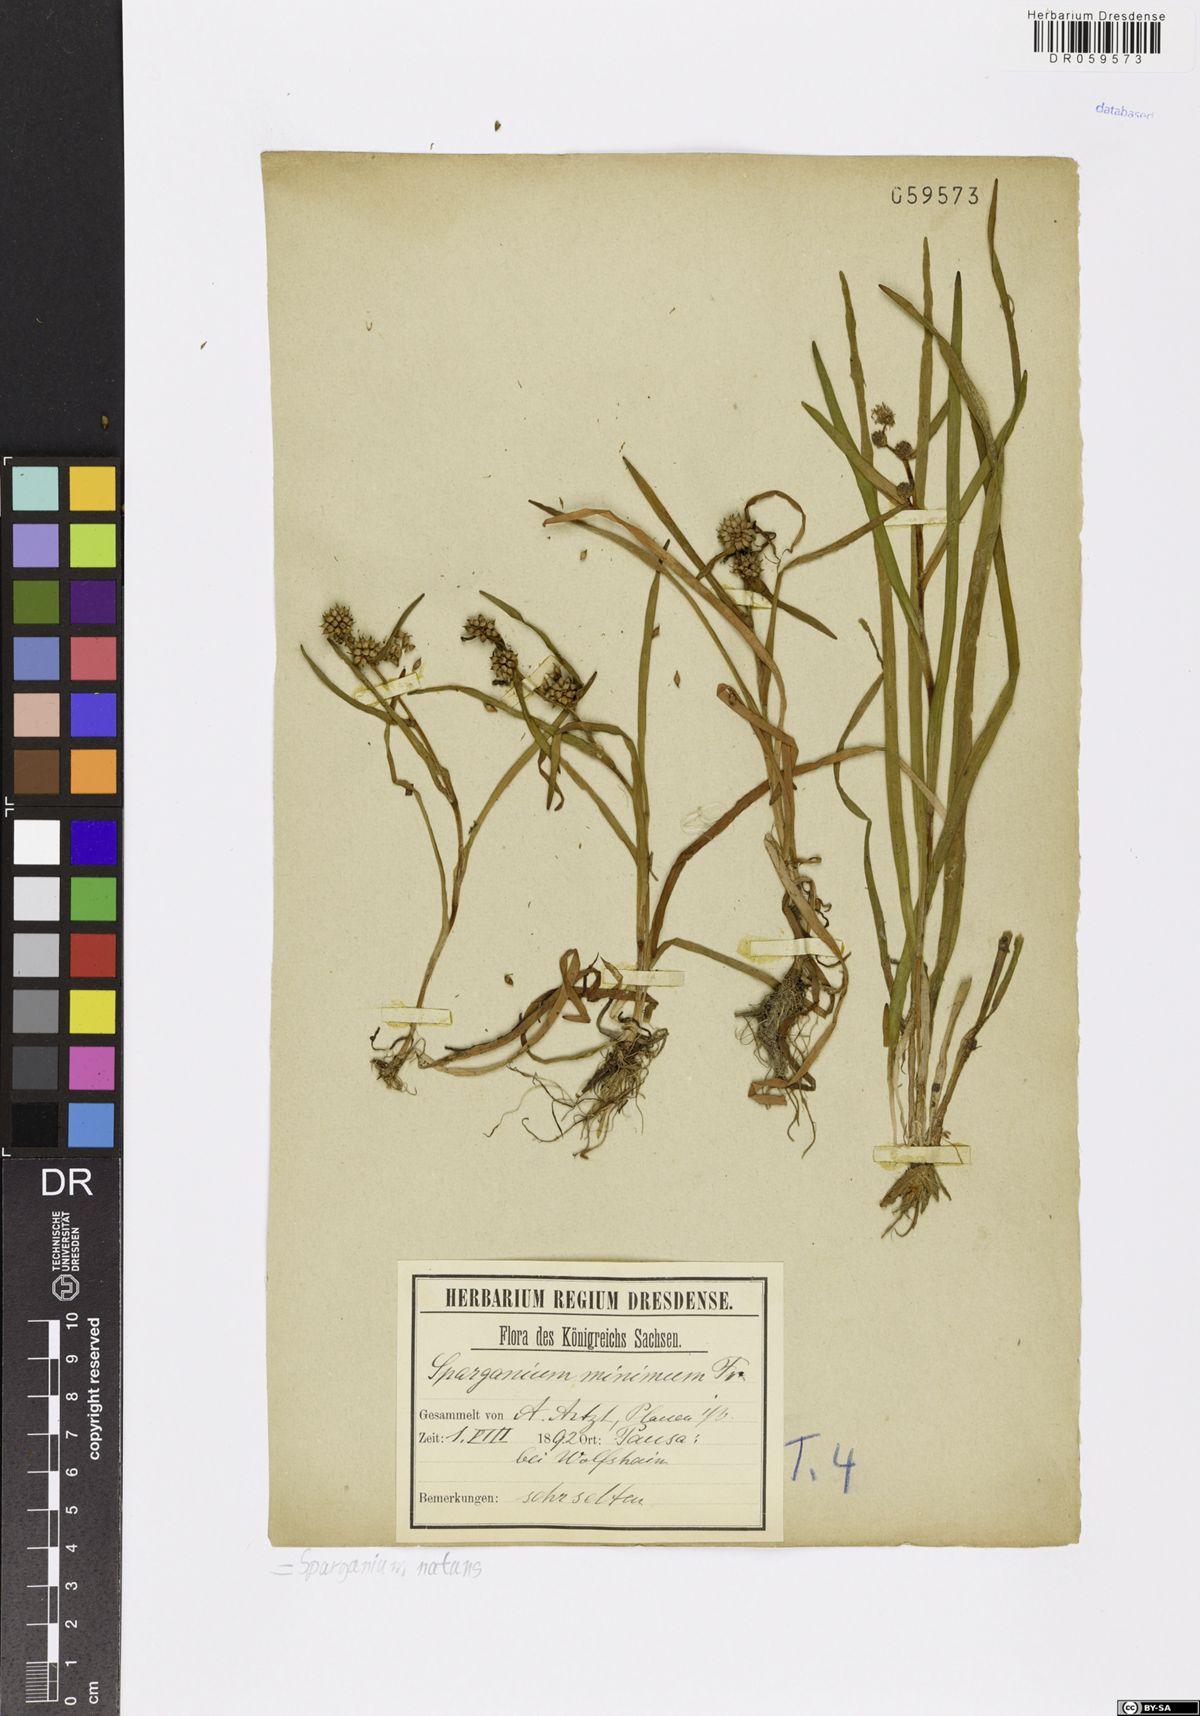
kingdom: Plantae
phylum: Tracheophyta
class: Liliopsida
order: Poales
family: Typhaceae
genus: Sparganium
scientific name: Sparganium natans
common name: Least bur-reed
